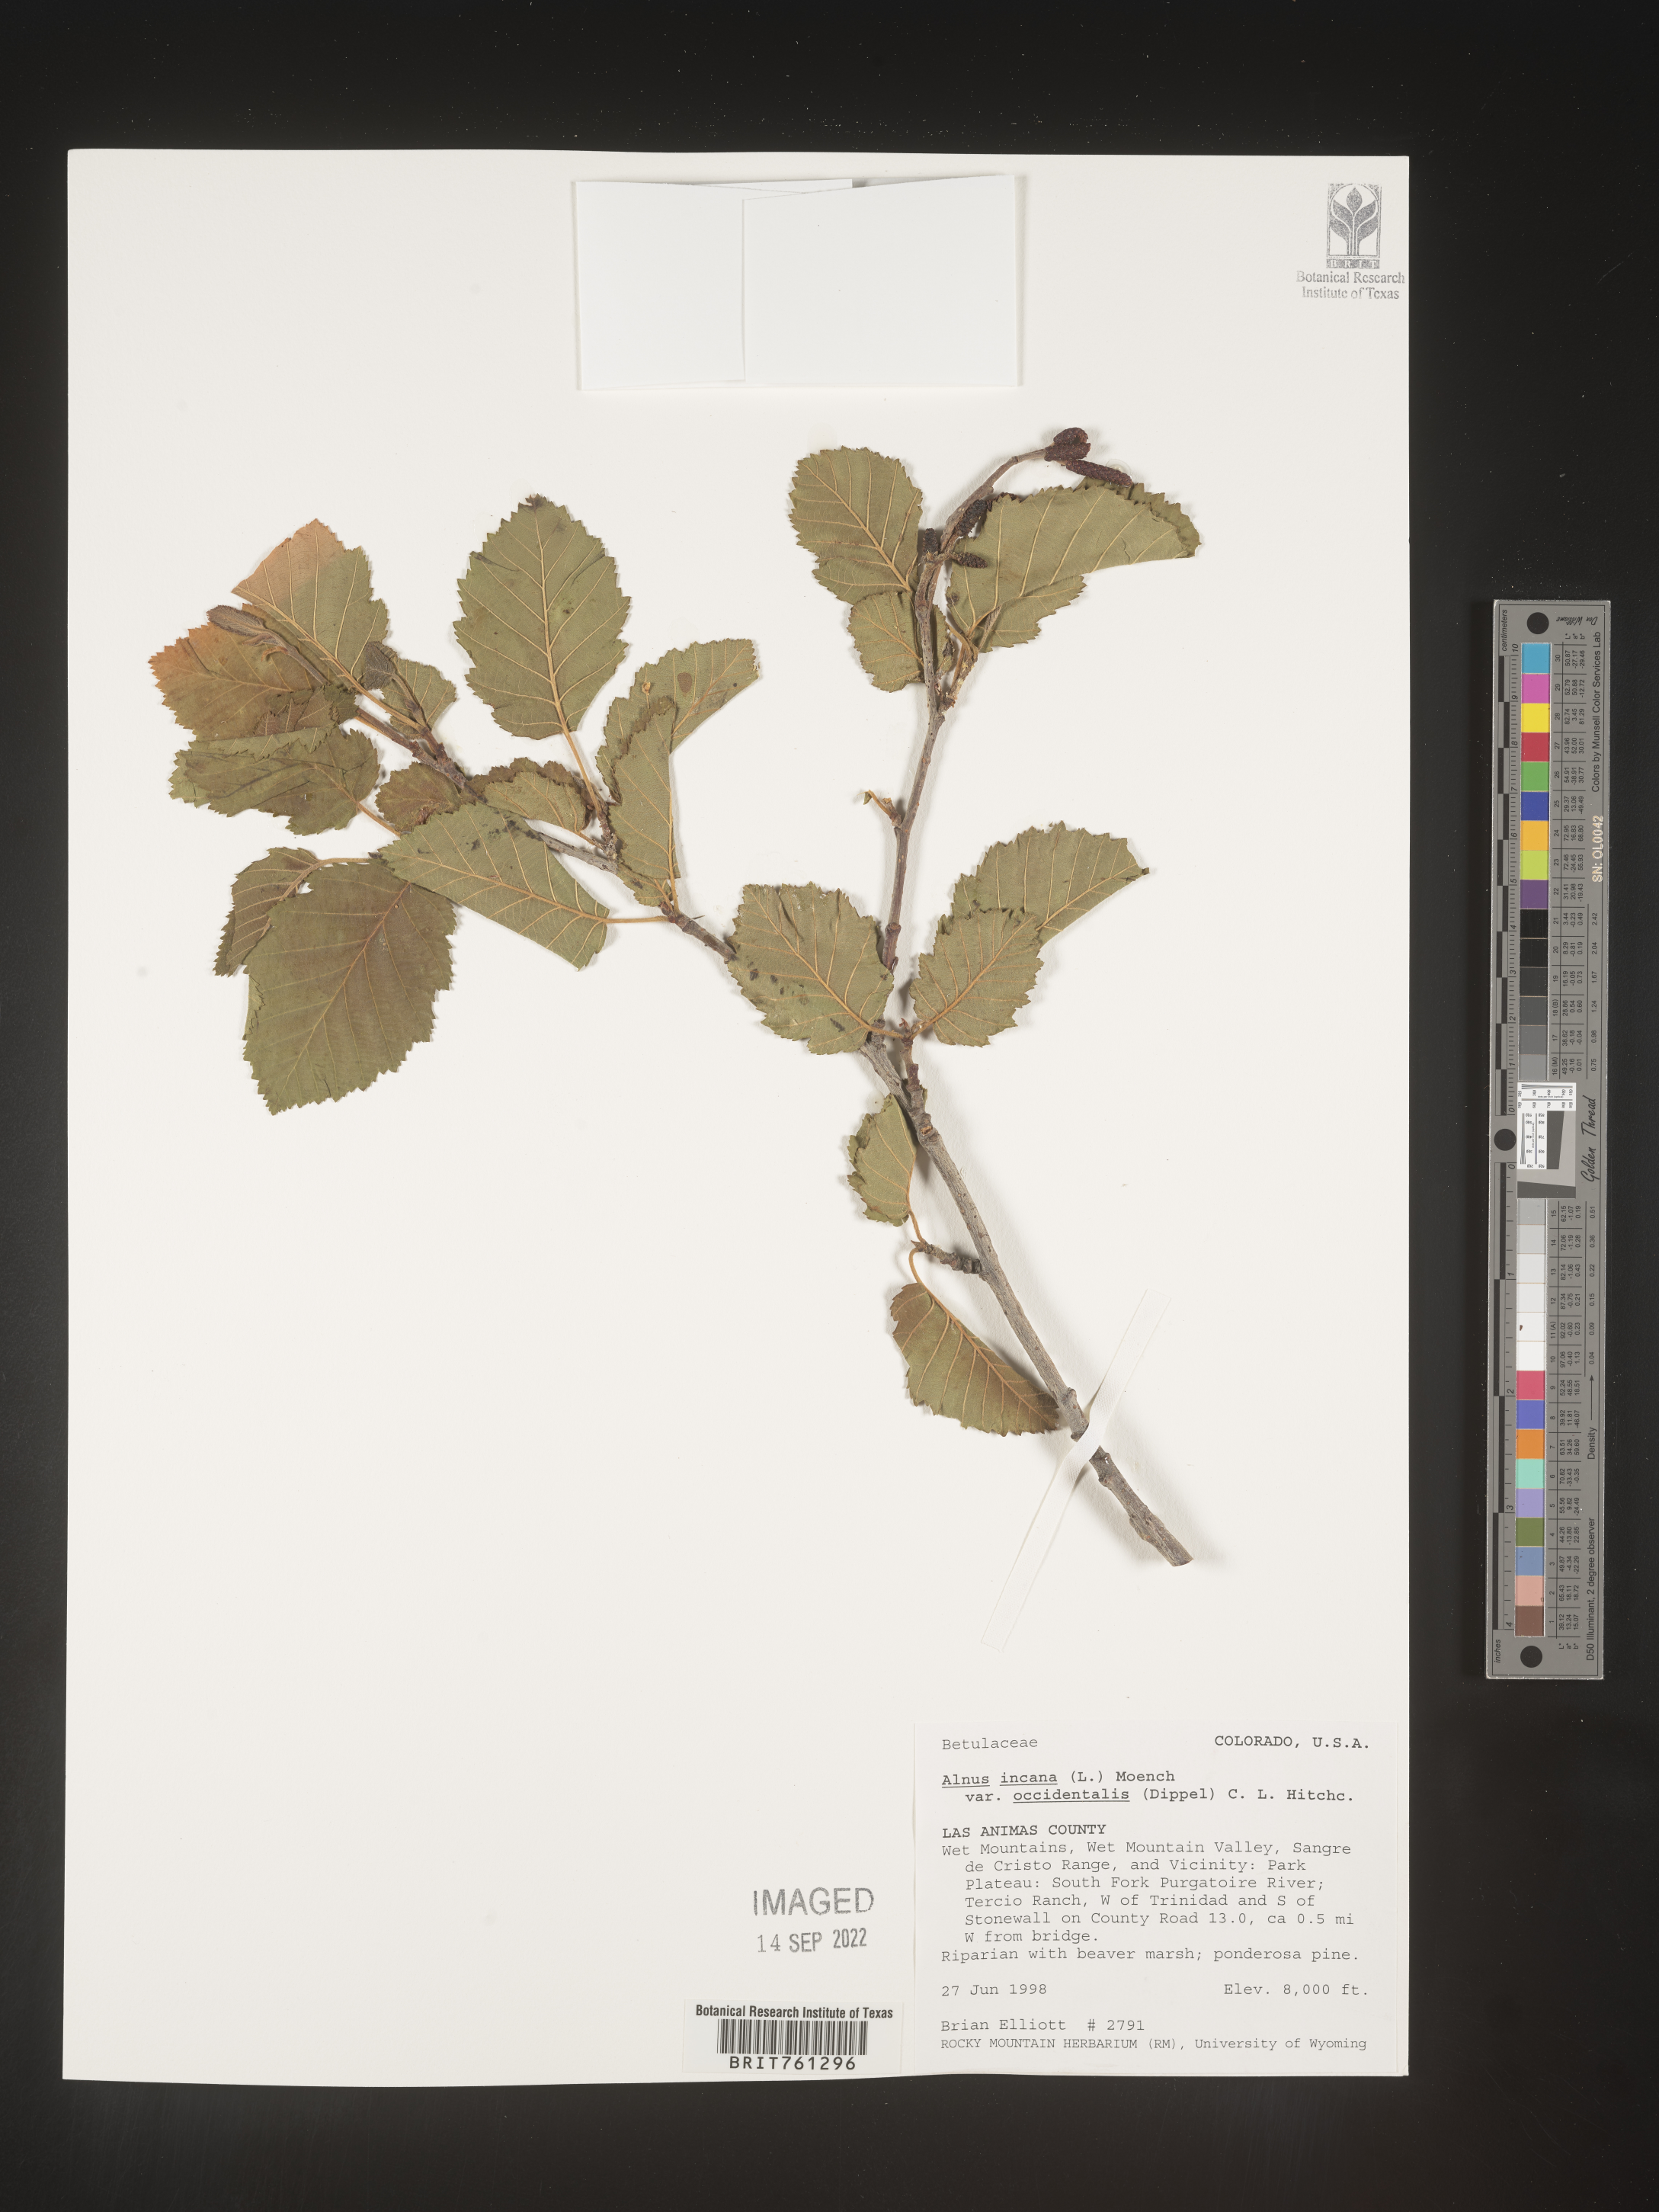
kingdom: Plantae
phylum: Tracheophyta
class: Magnoliopsida
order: Fagales
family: Betulaceae
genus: Alnus
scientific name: Alnus incana
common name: Grey alder
